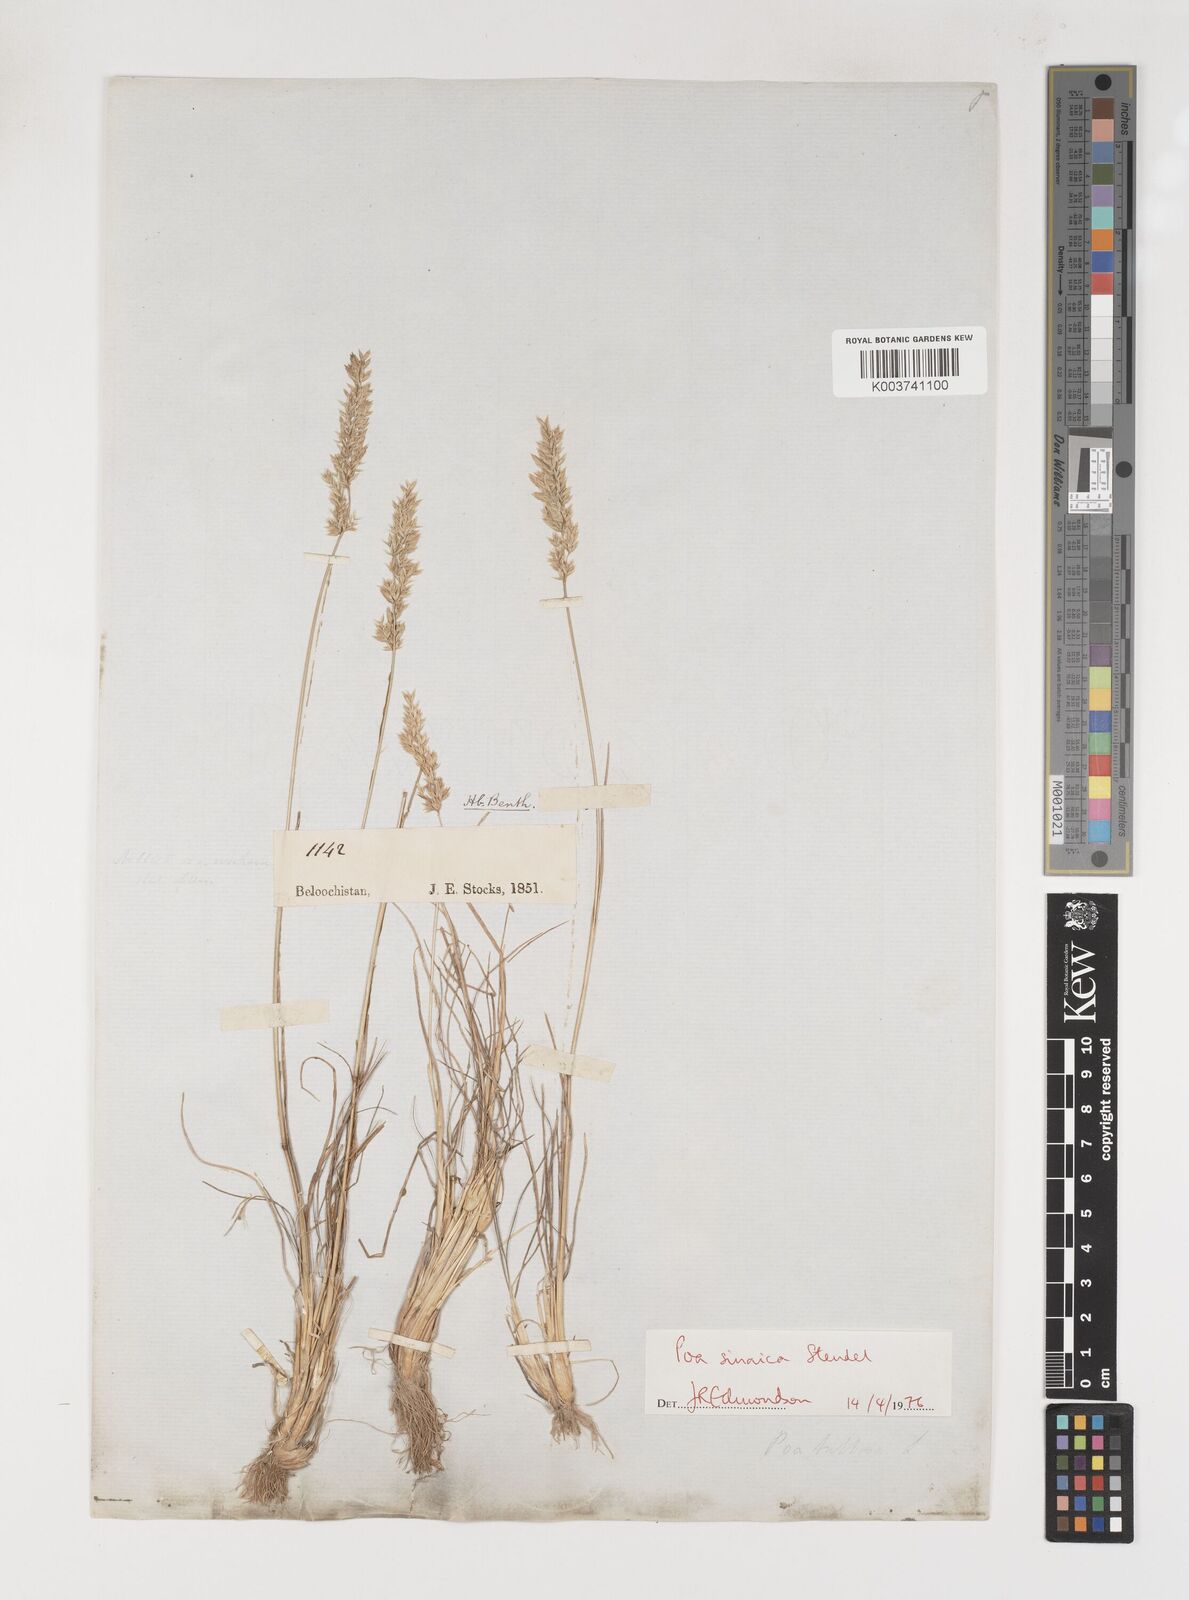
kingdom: Plantae
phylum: Tracheophyta
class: Liliopsida
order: Poales
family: Poaceae
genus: Poa
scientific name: Poa sinaica
